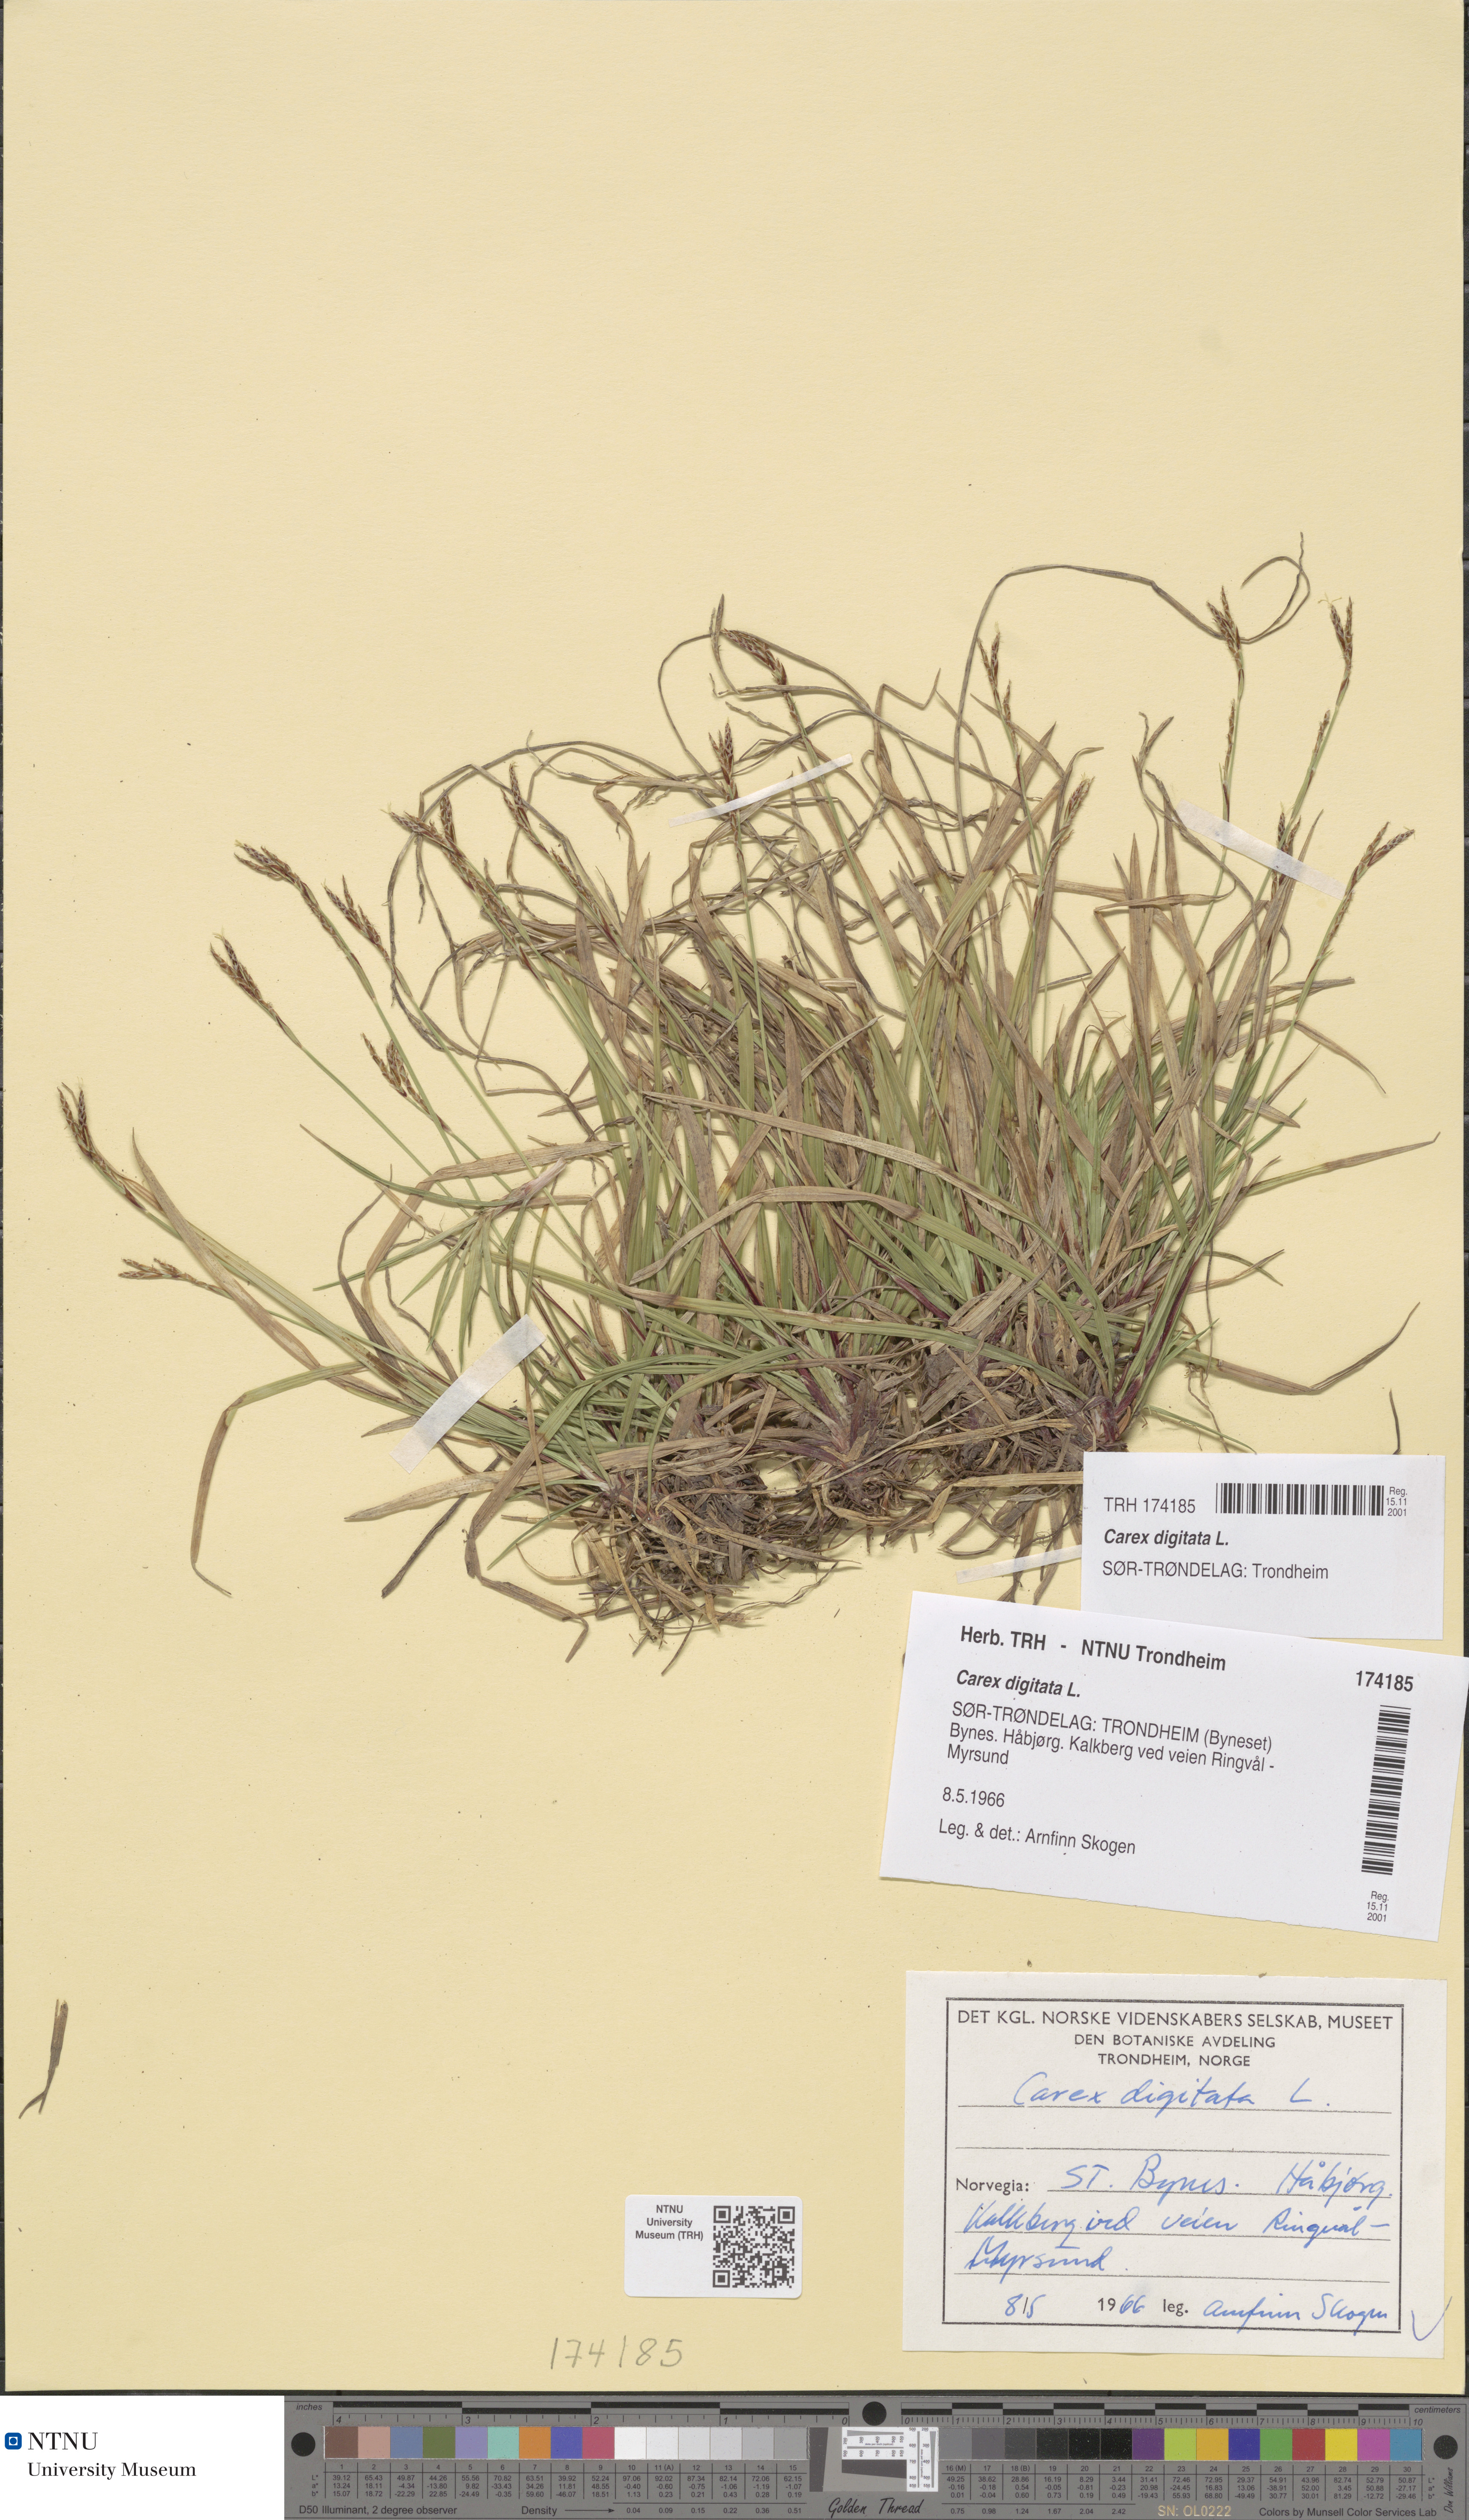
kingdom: Plantae
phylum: Tracheophyta
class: Liliopsida
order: Poales
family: Cyperaceae
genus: Carex
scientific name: Carex digitata
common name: Fingered sedge
